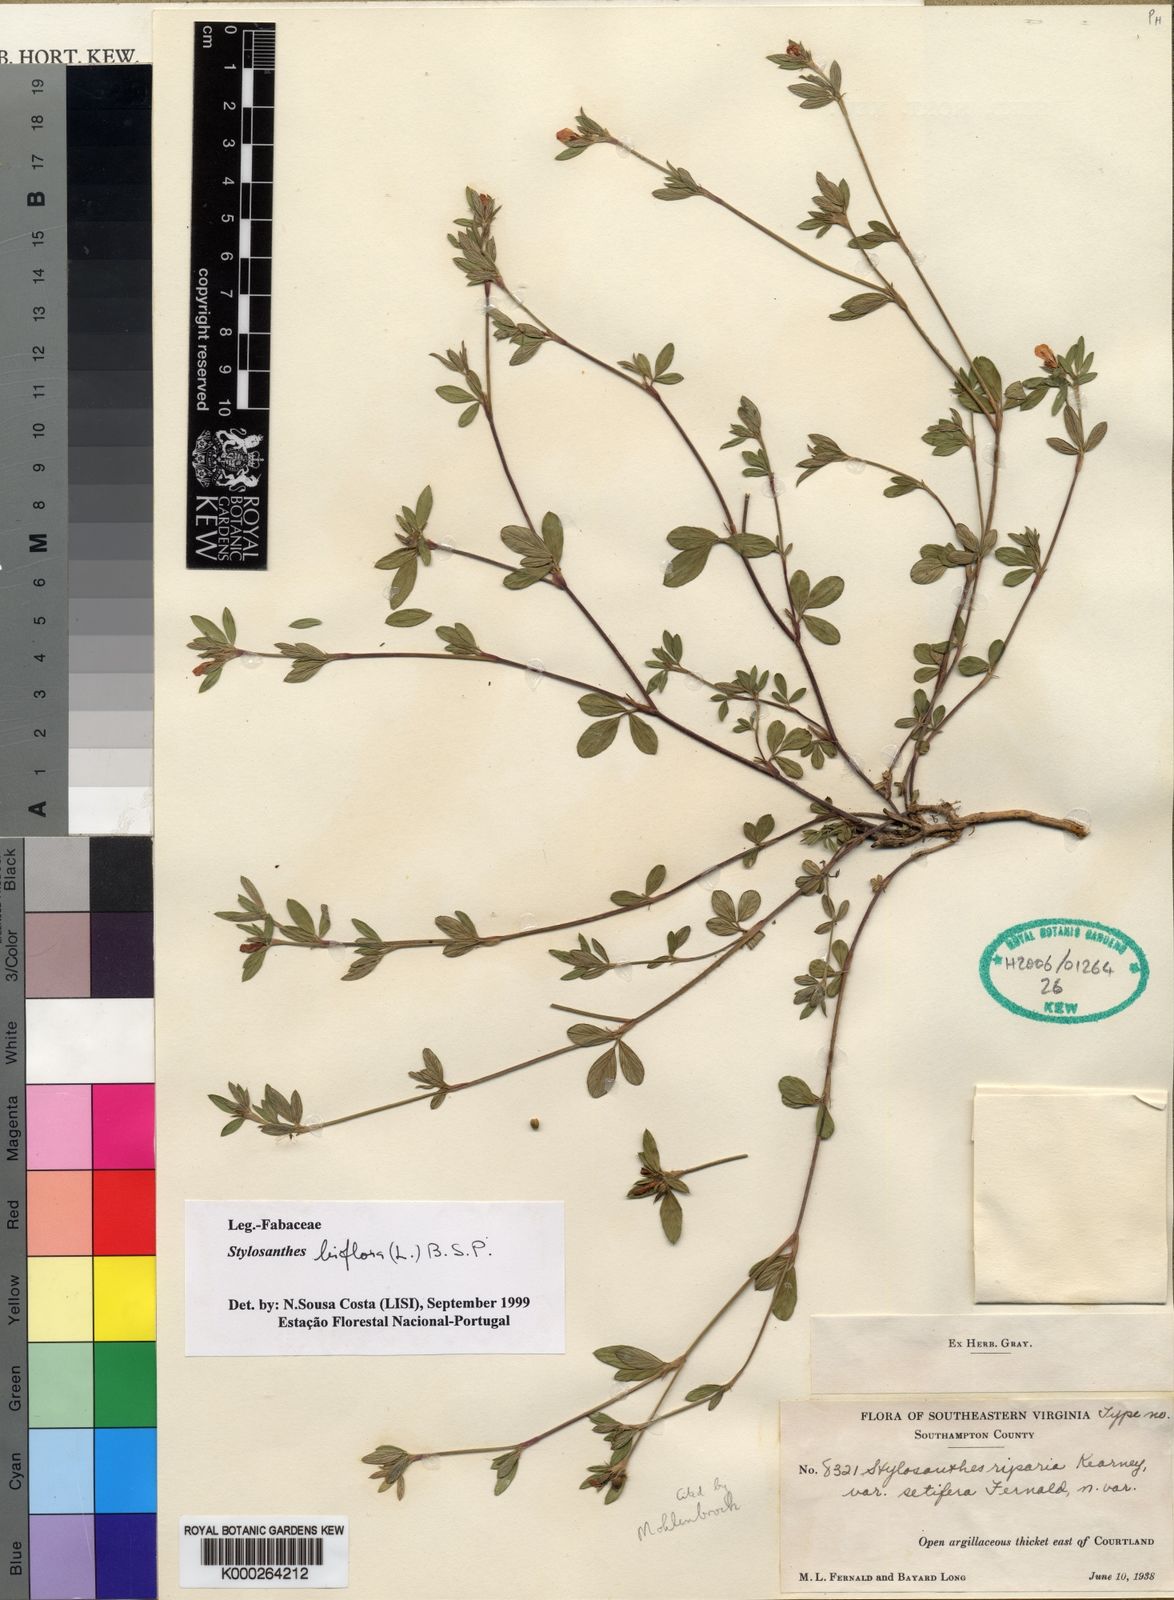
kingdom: Plantae
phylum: Tracheophyta
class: Magnoliopsida
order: Fabales
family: Fabaceae
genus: Stylosanthes
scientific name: Stylosanthes
